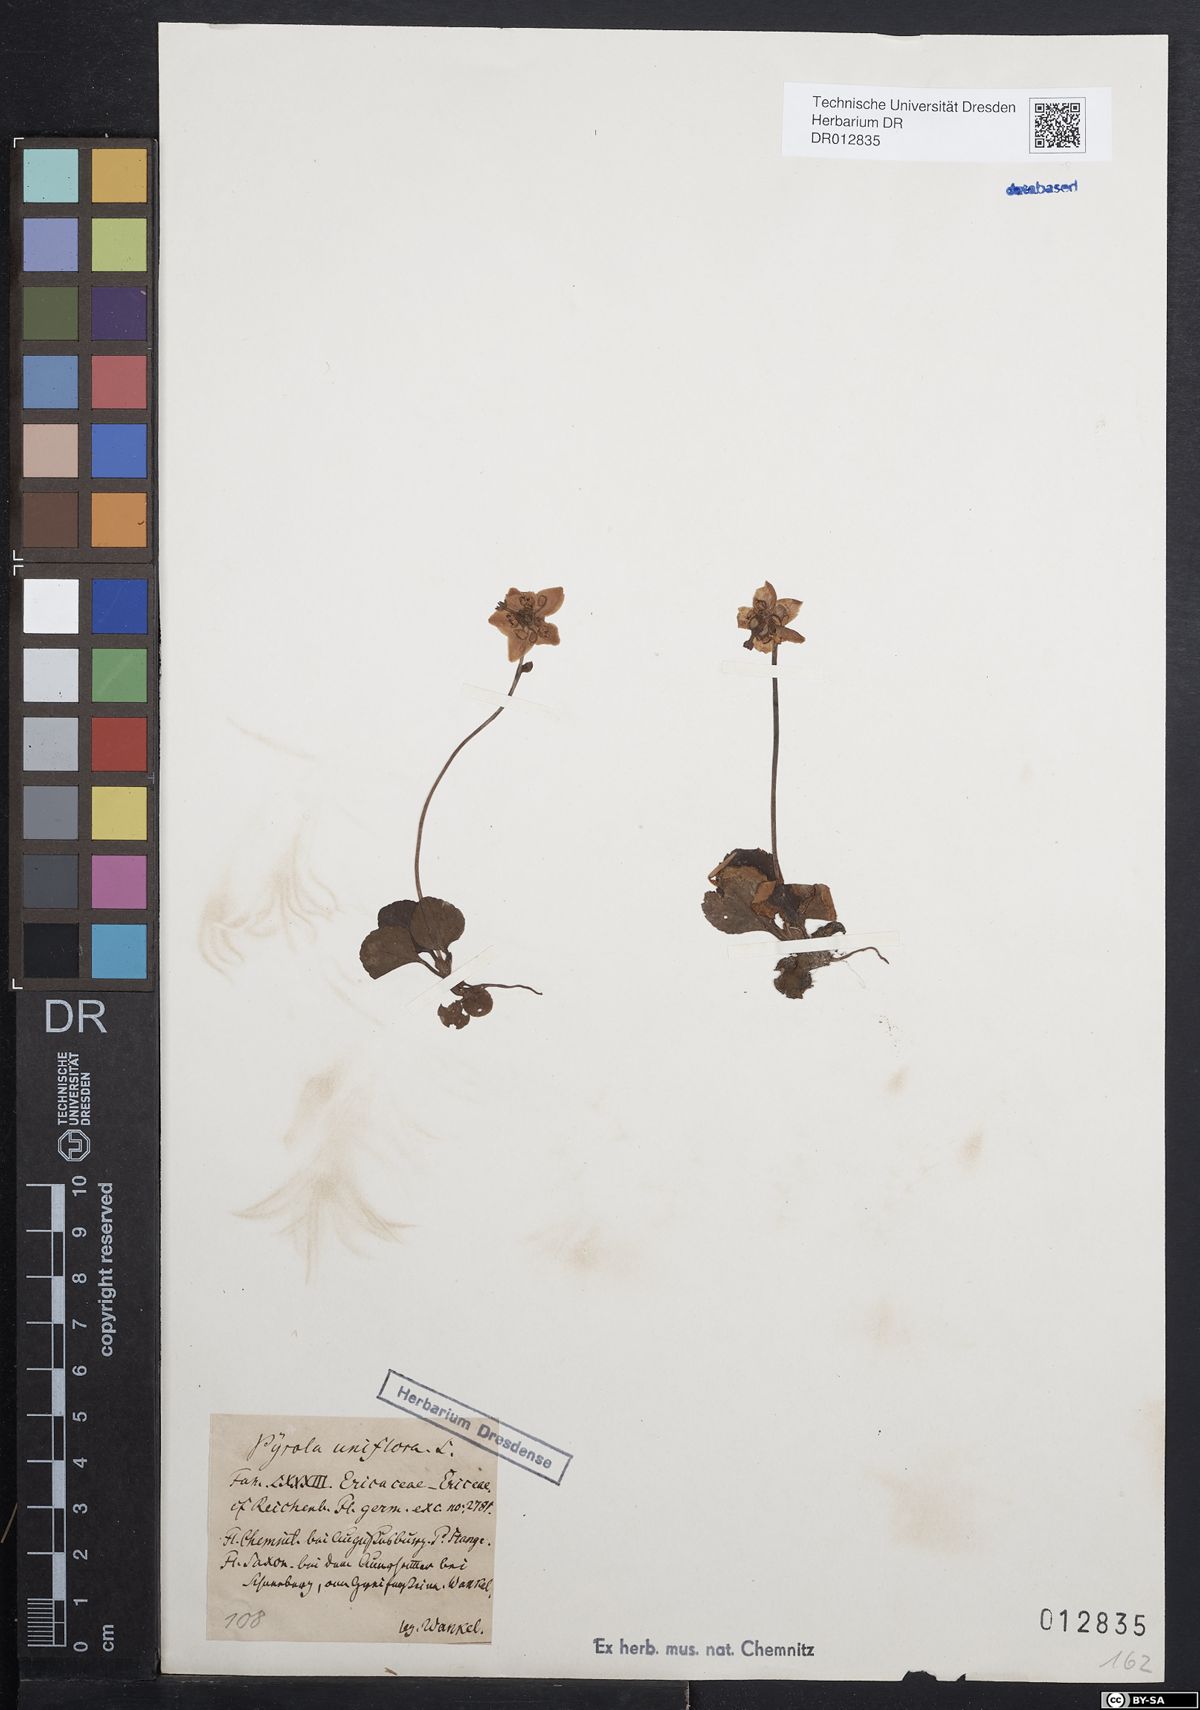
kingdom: Plantae
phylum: Tracheophyta
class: Magnoliopsida
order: Ericales
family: Ericaceae
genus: Moneses
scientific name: Moneses uniflora
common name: One-flowered wintergreen
